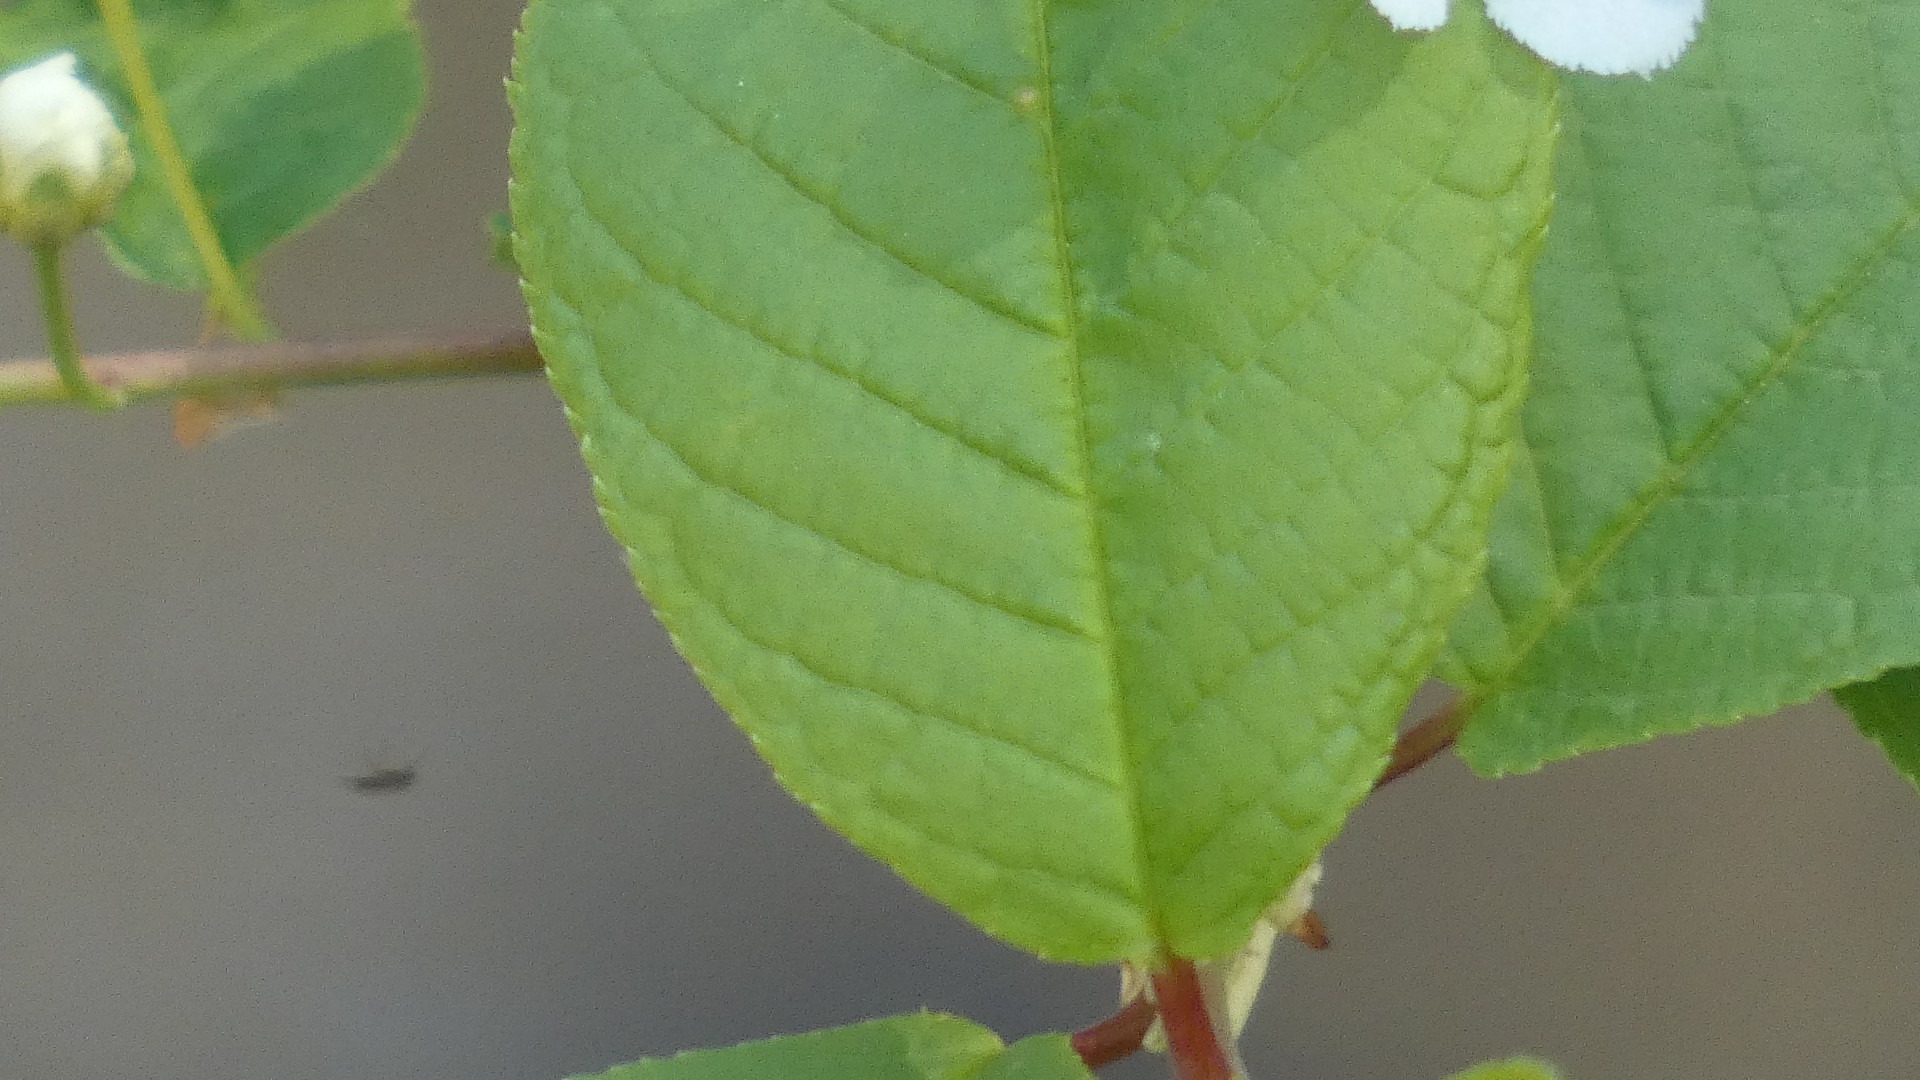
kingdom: Plantae
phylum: Tracheophyta
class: Magnoliopsida
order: Rosales
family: Rosaceae
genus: Prunus
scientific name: Prunus padus
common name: Almindelig hæg
